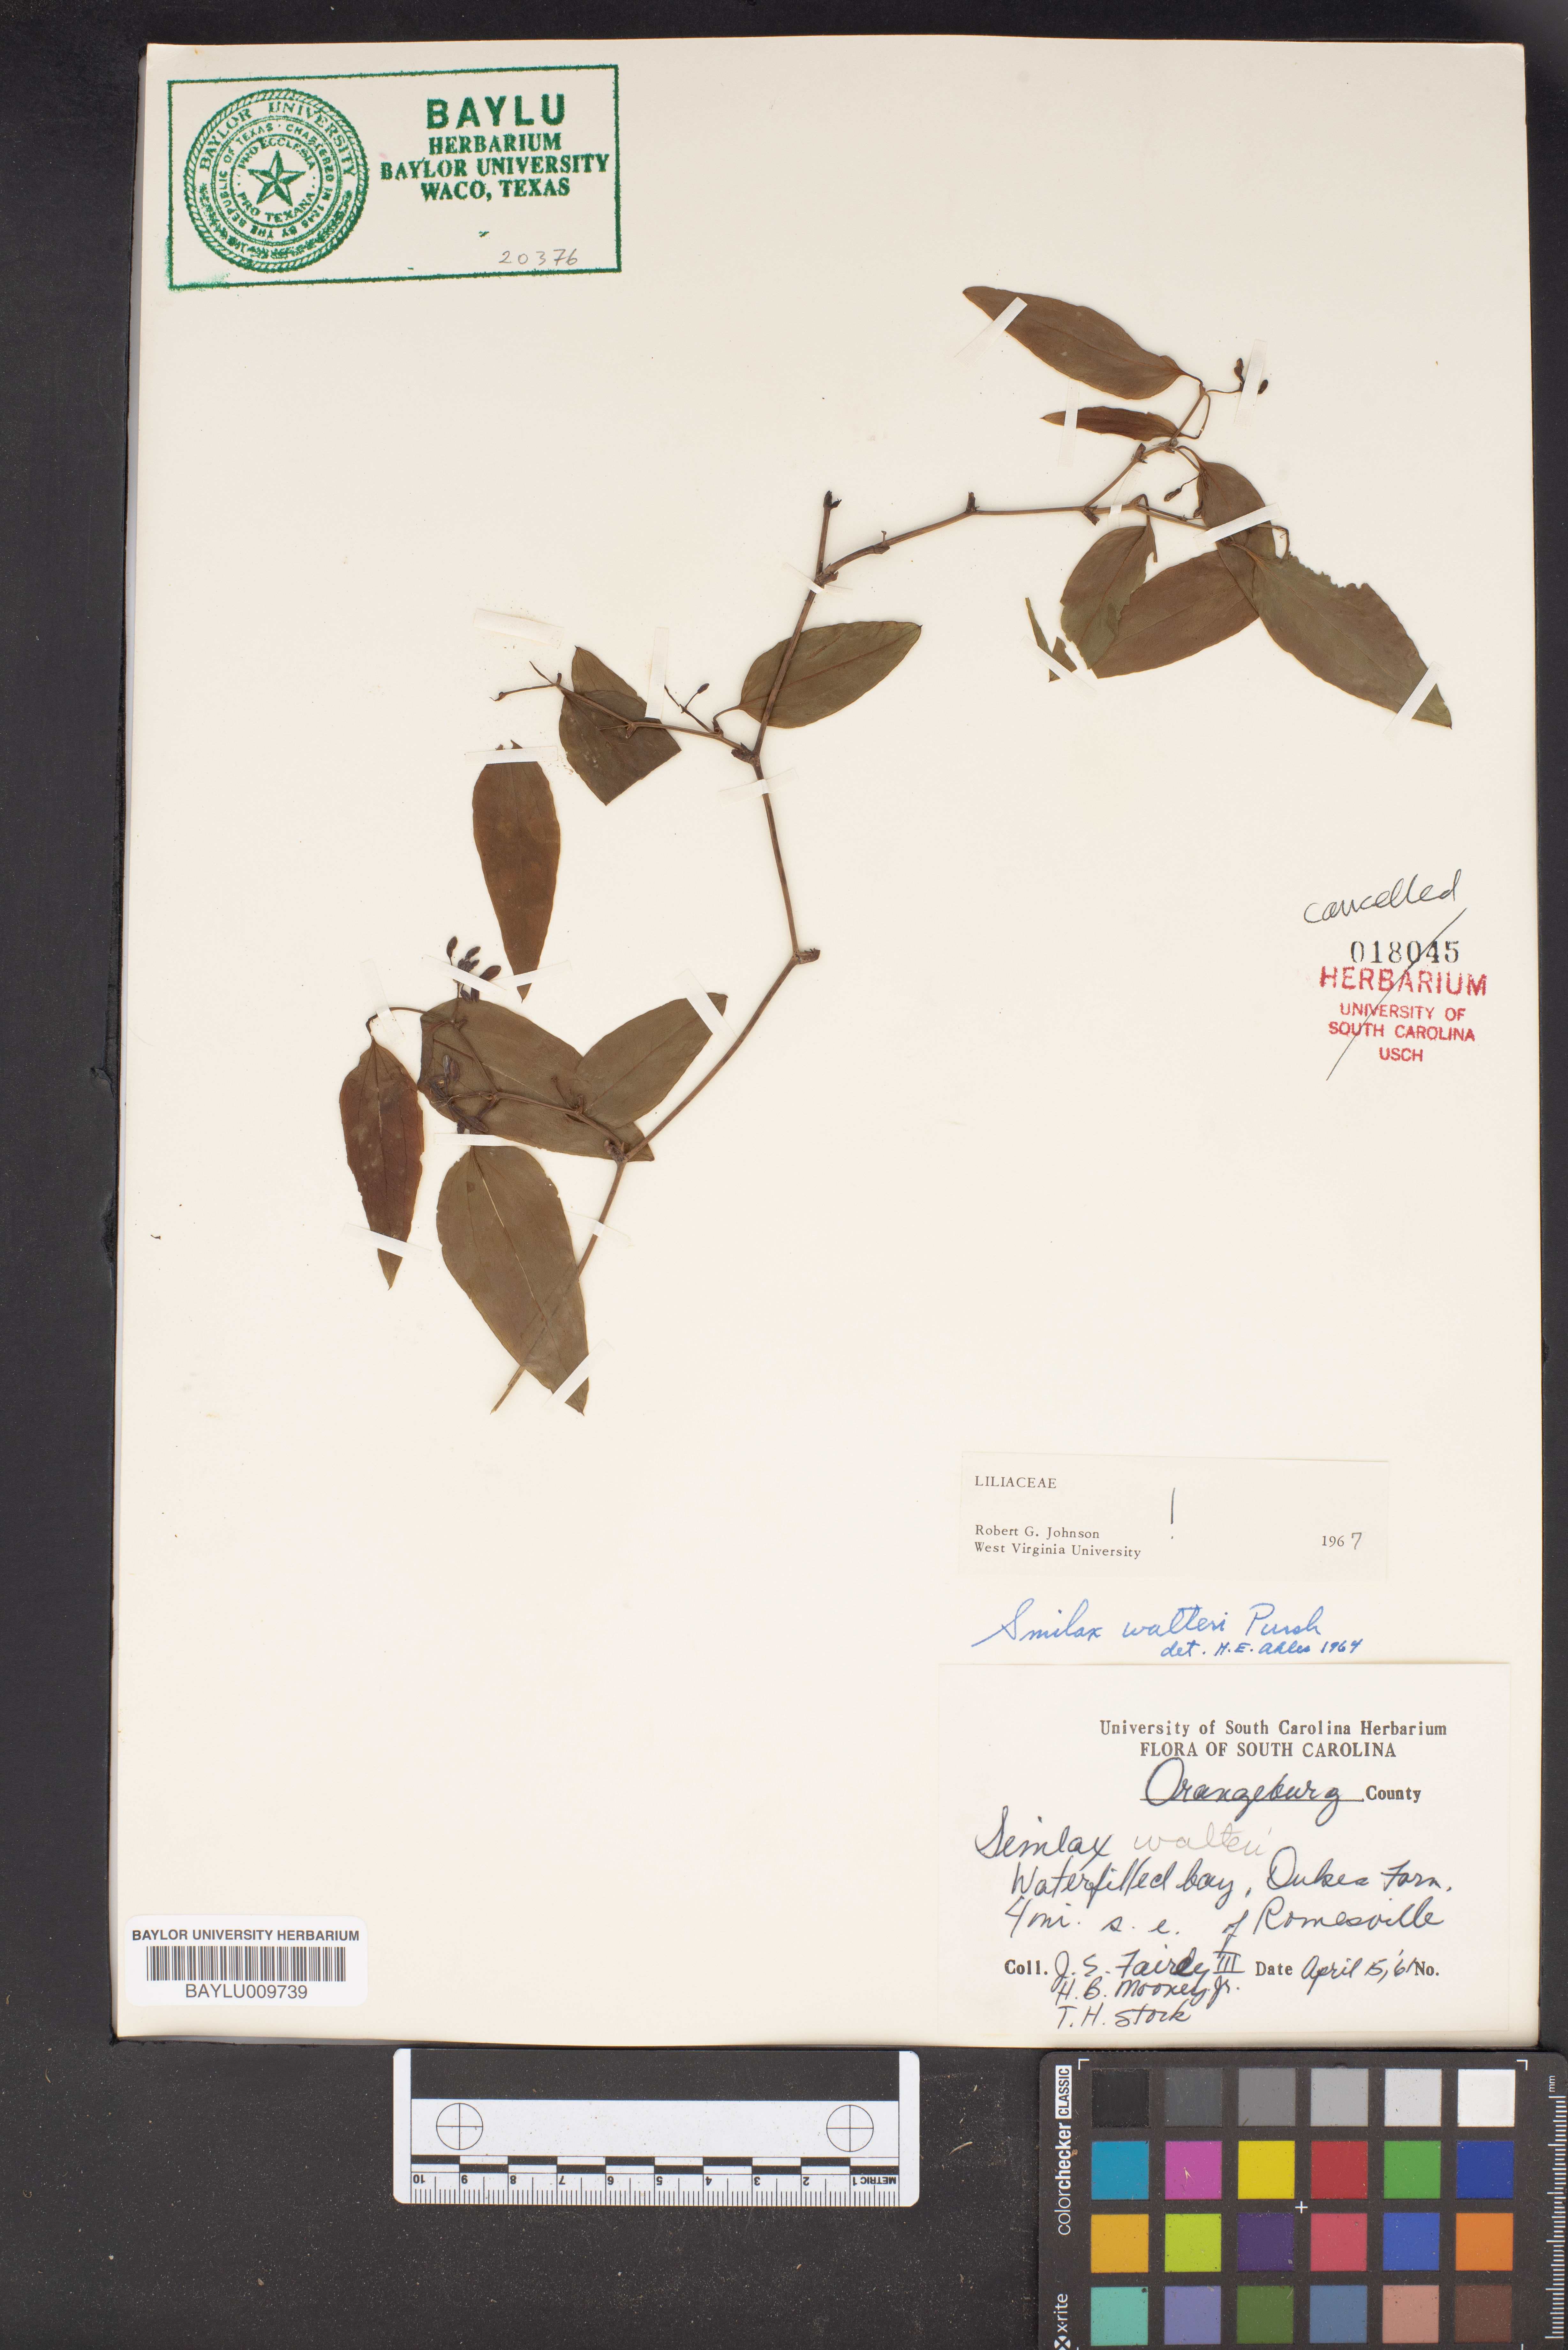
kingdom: Plantae
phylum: Tracheophyta
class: Liliopsida
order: Liliales
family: Smilacaceae
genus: Smilax
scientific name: Smilax walteri
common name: Coral greenbrier
